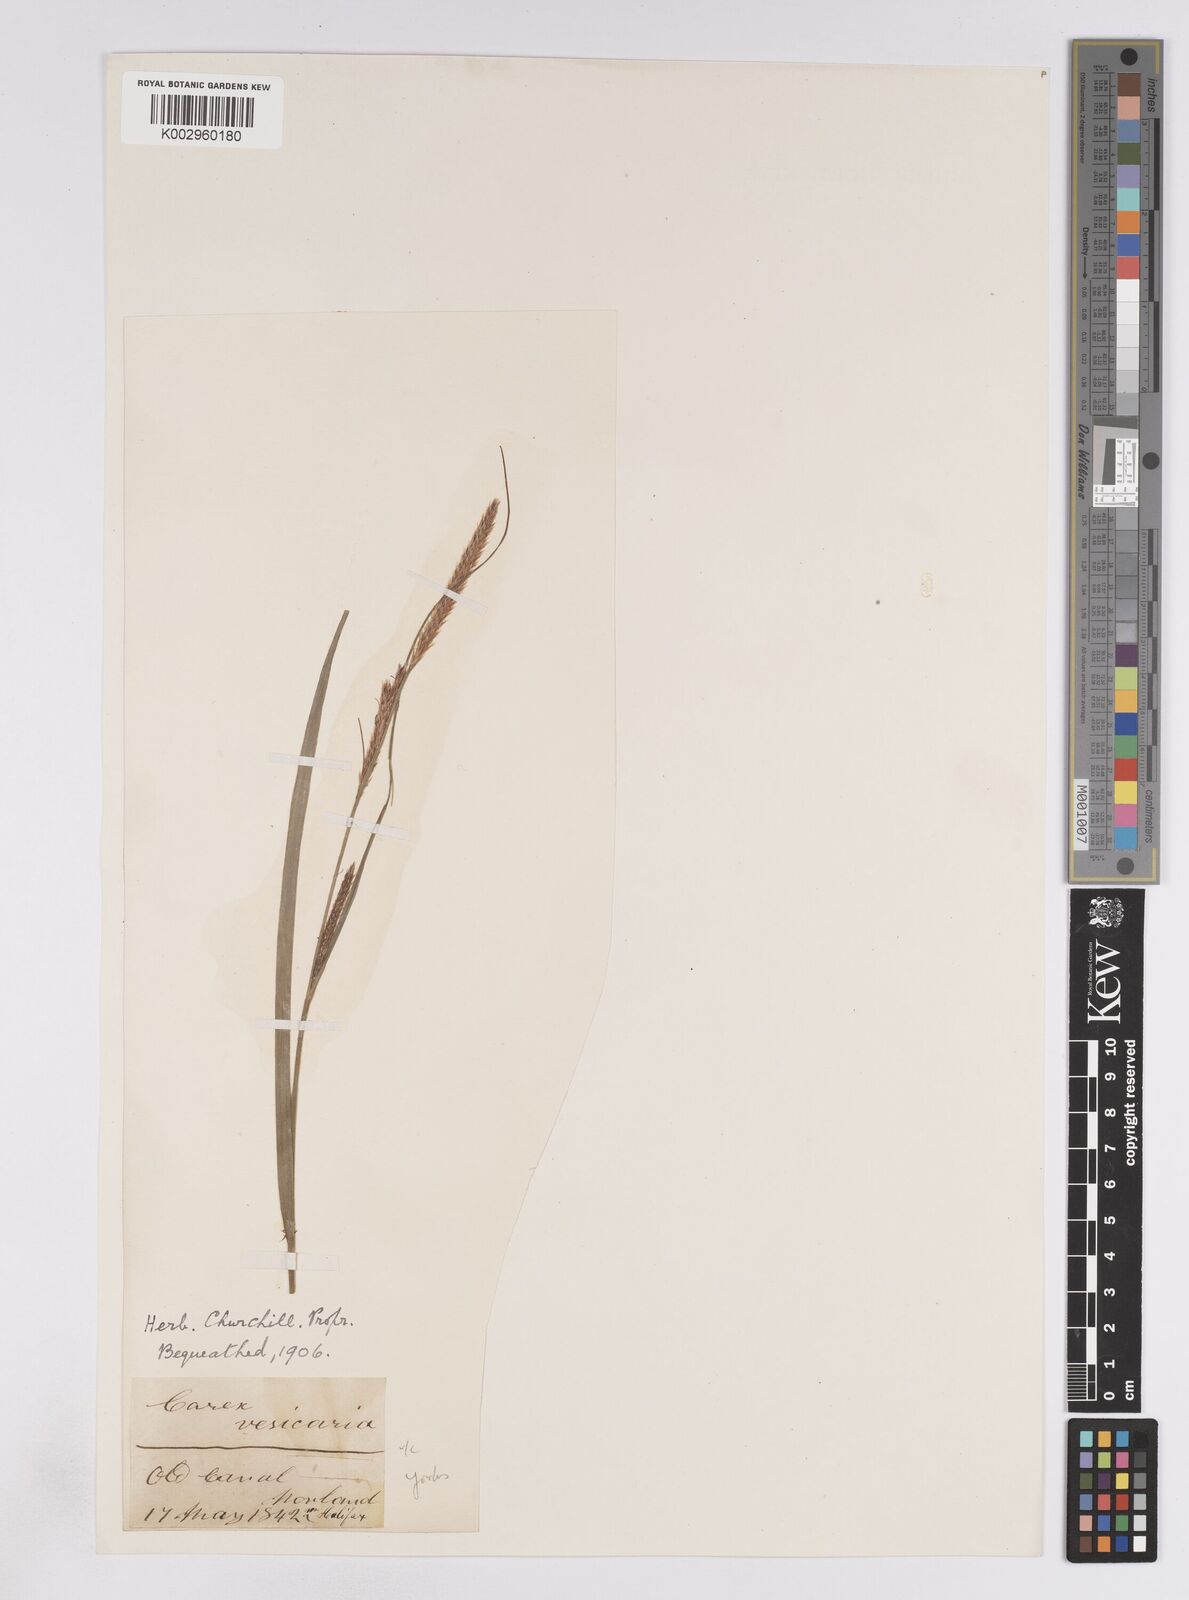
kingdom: Plantae
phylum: Tracheophyta
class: Liliopsida
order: Poales
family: Cyperaceae
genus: Carex
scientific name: Carex vesicaria
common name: Bladder-sedge
